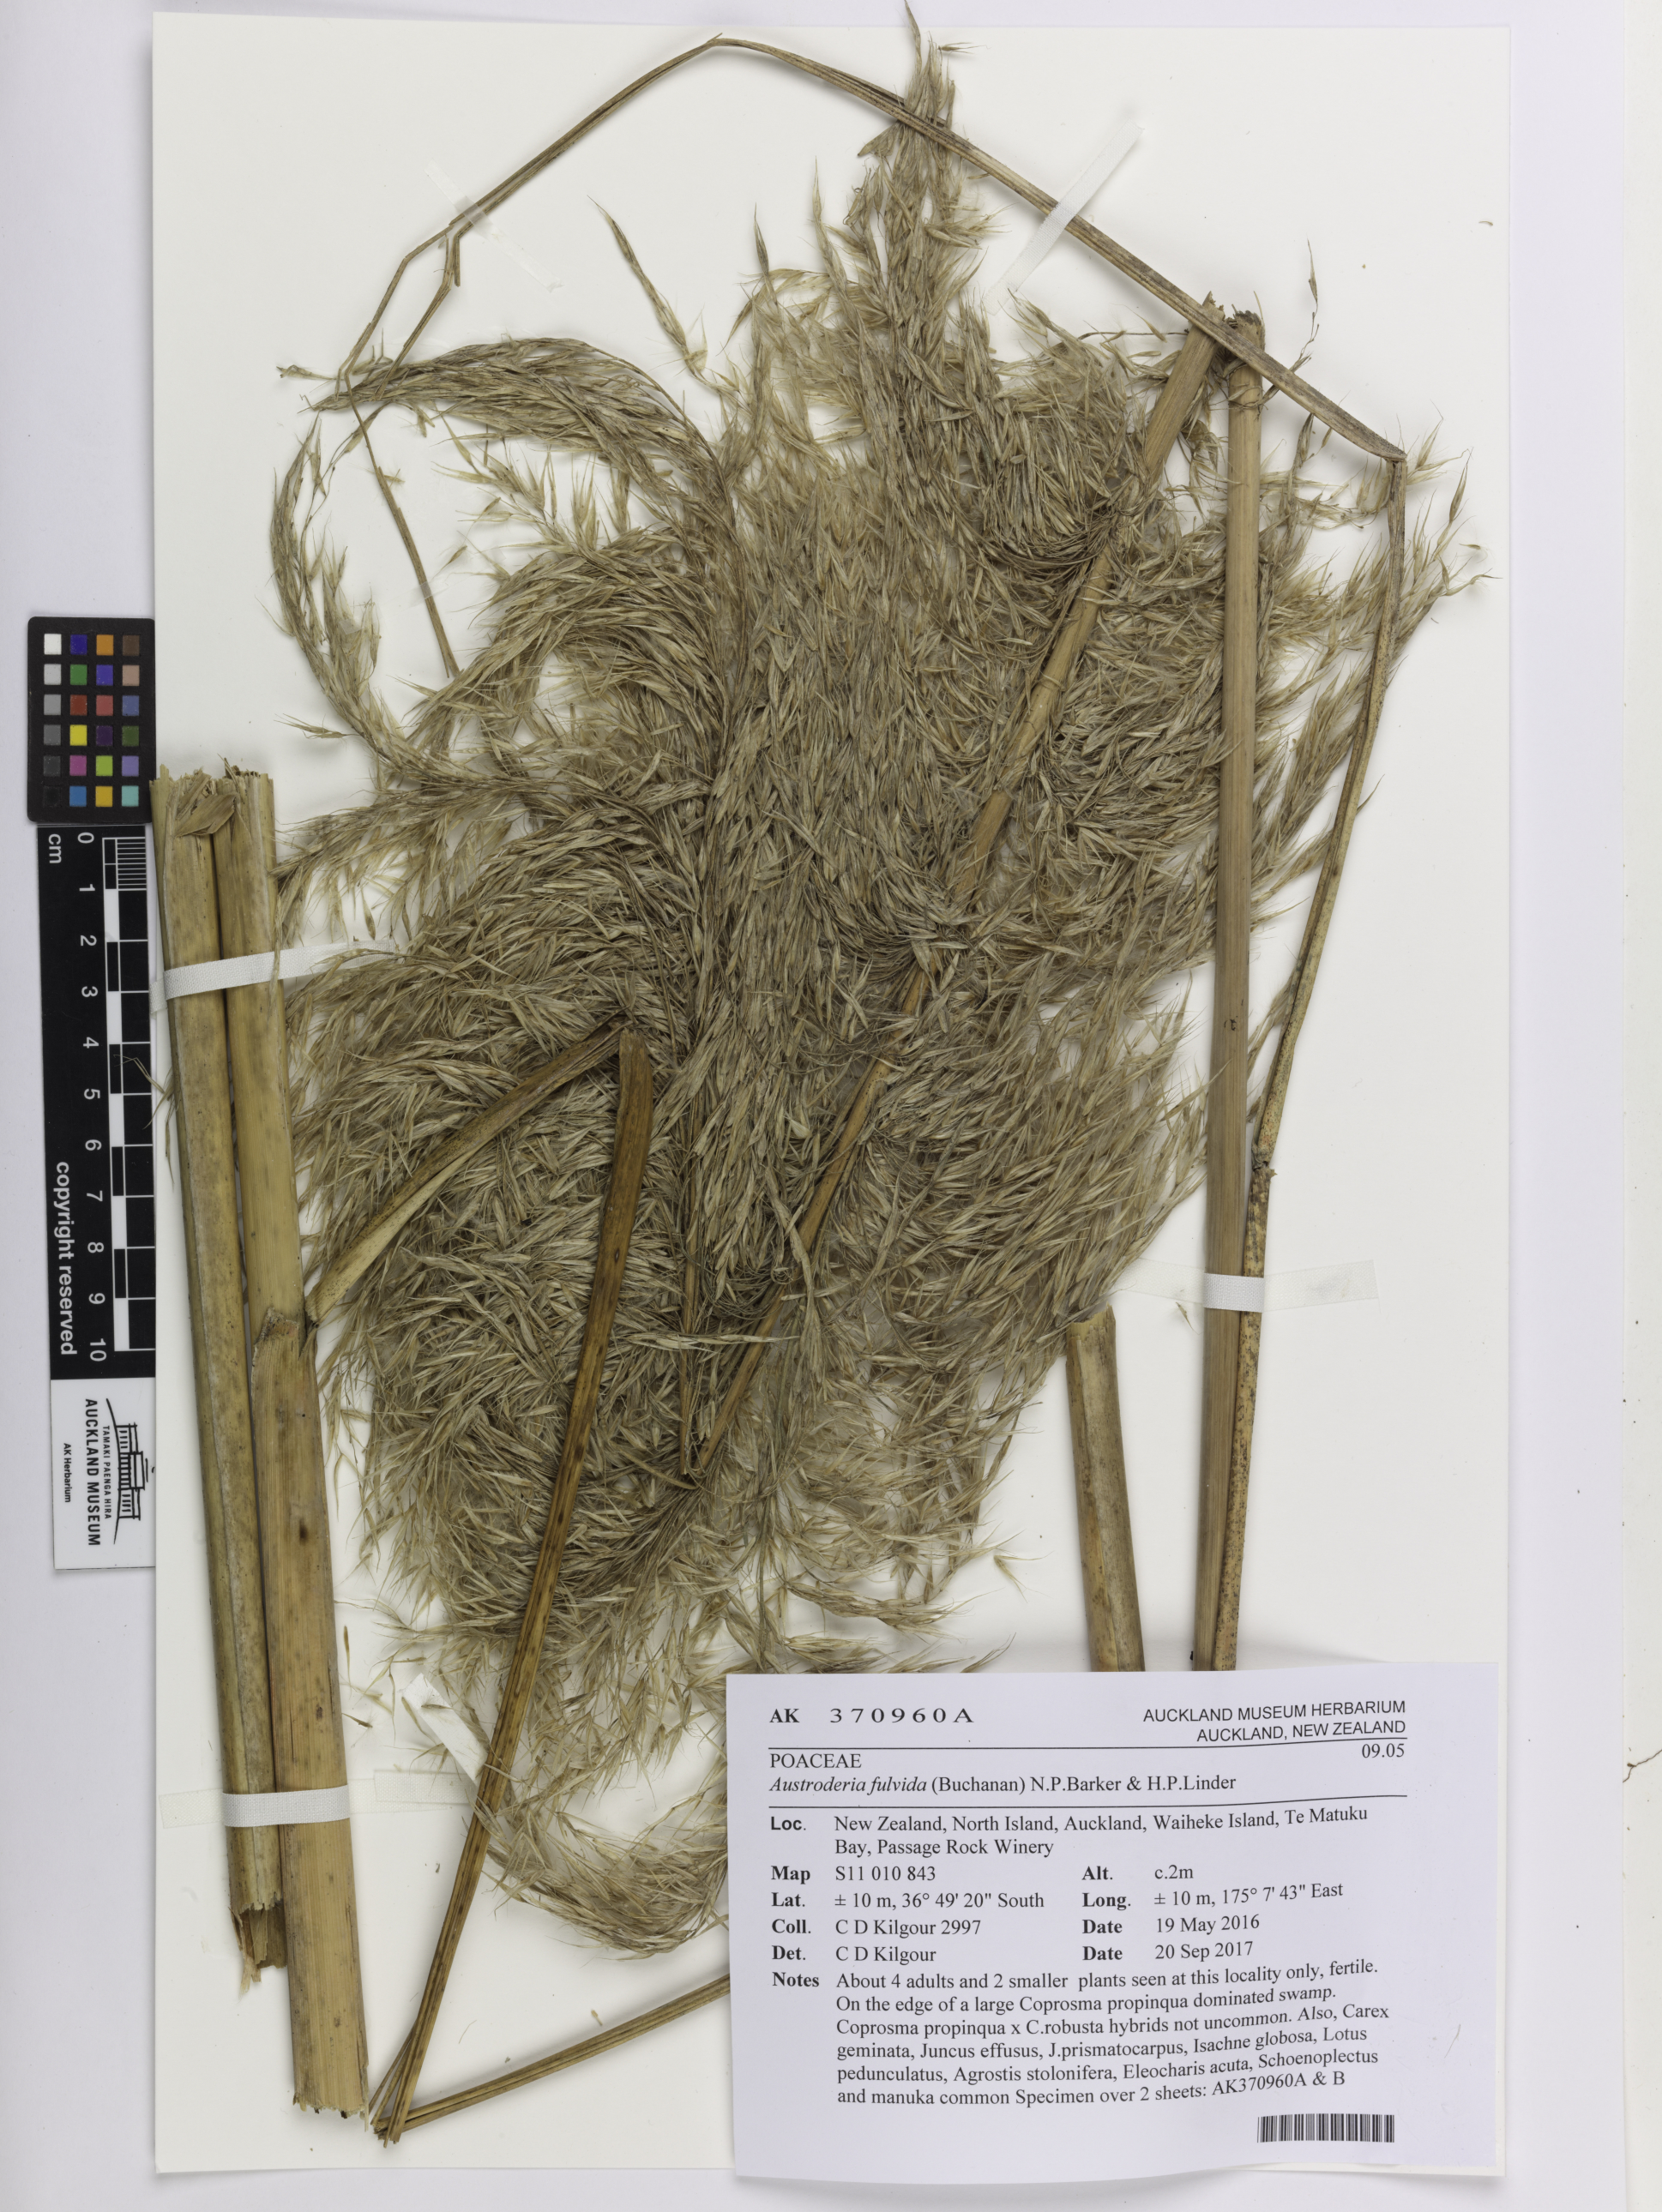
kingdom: Plantae
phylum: Tracheophyta
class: Liliopsida
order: Poales
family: Poaceae
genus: Austroderia
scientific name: Austroderia fulvida
